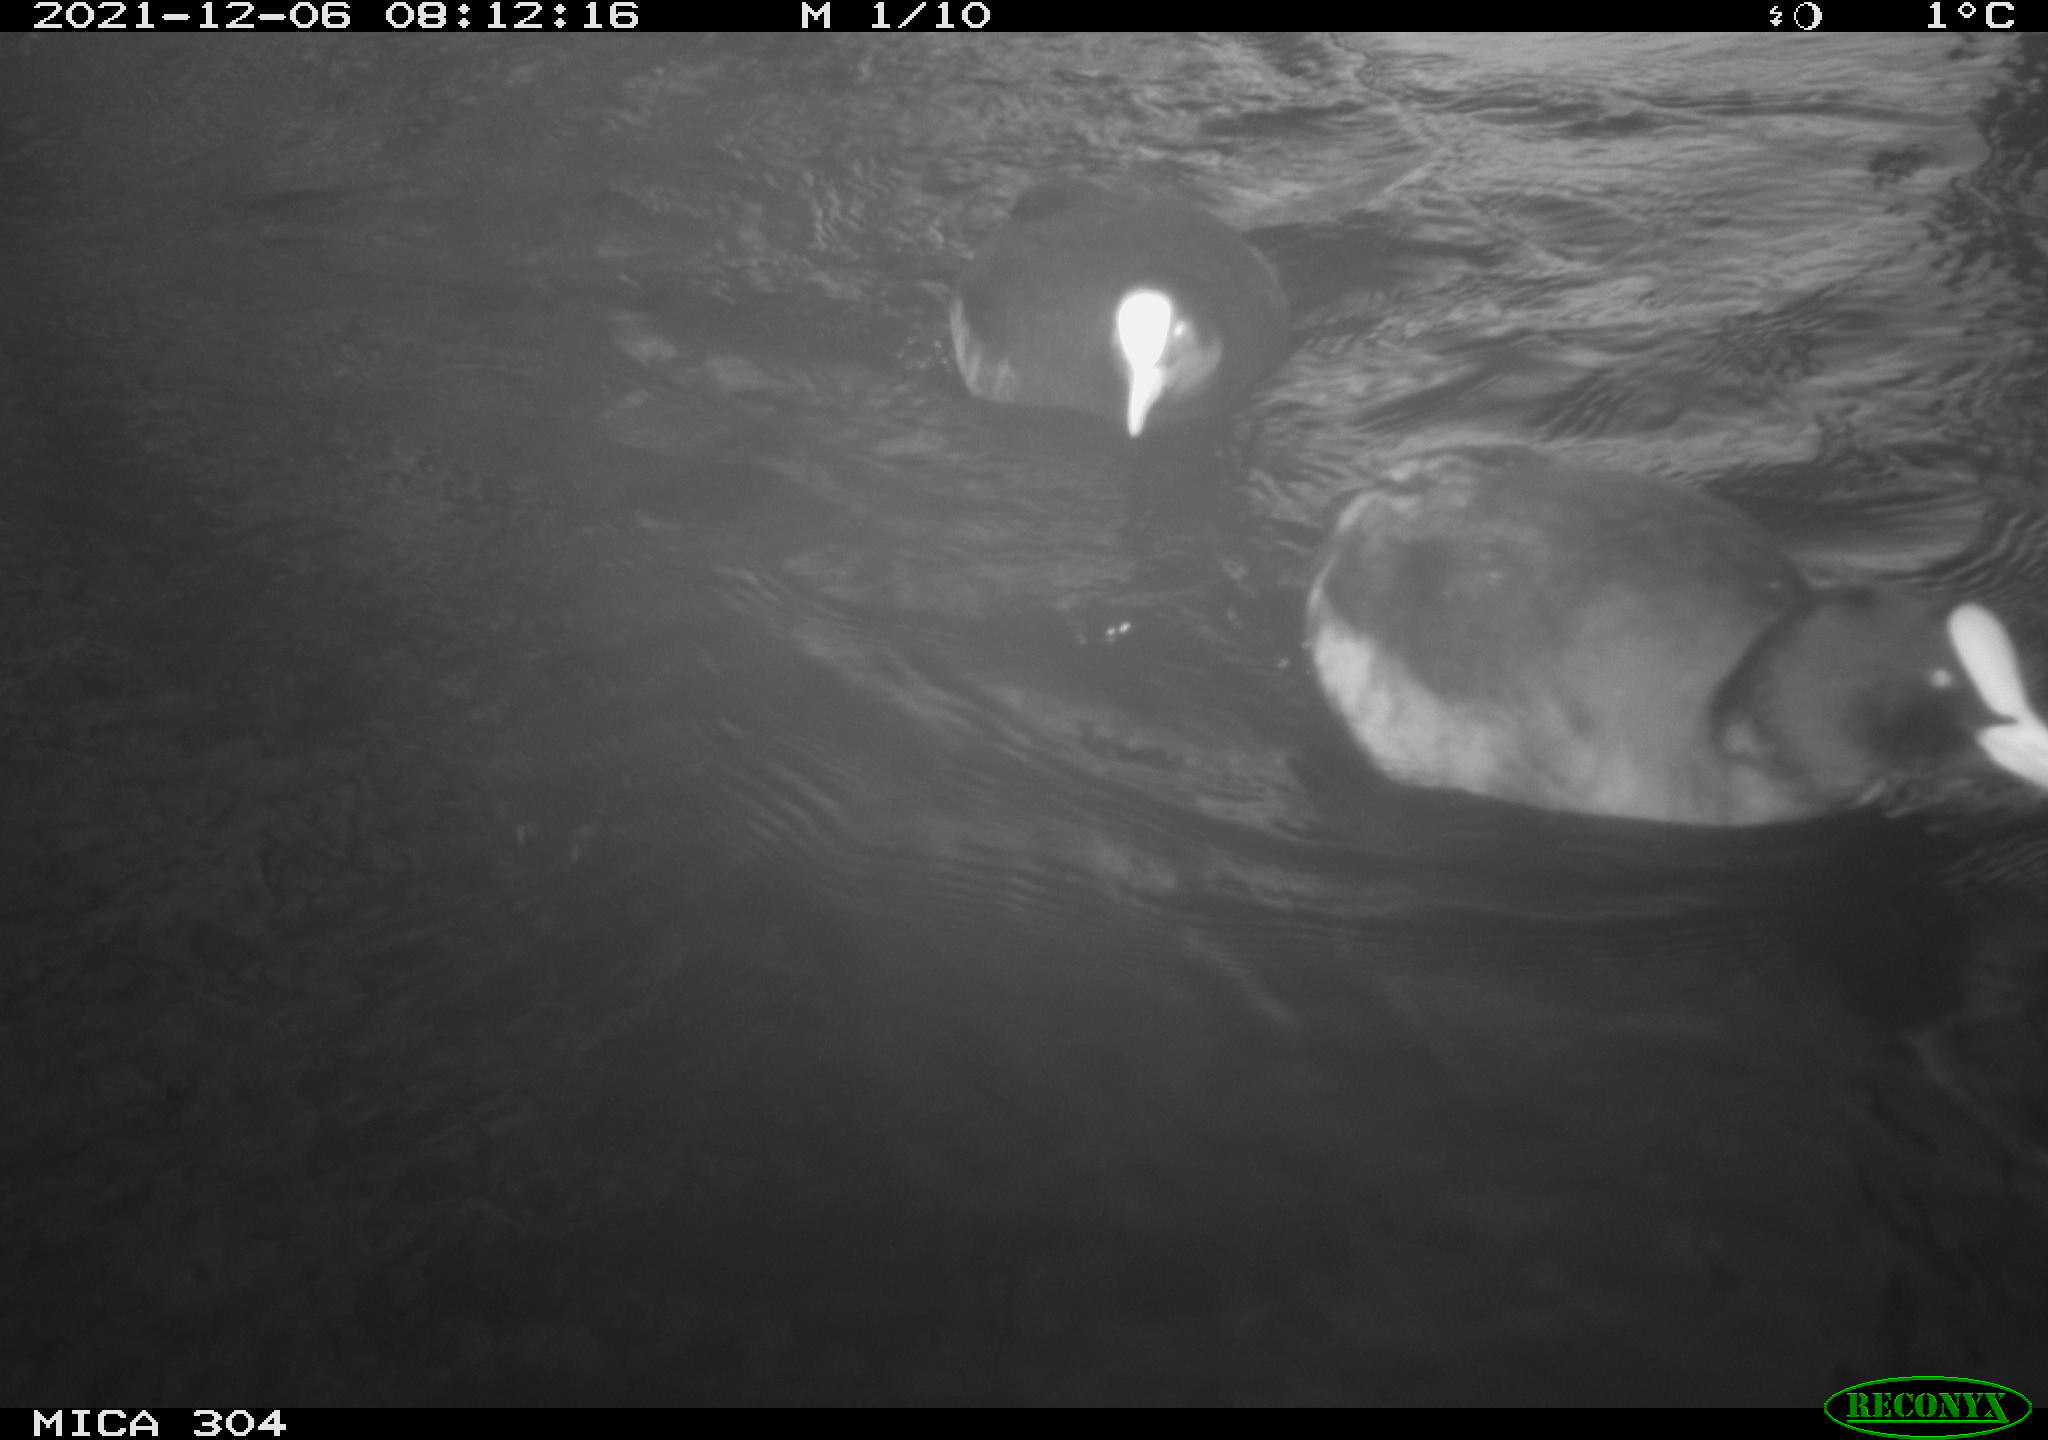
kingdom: Animalia
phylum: Chordata
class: Aves
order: Gruiformes
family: Rallidae
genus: Fulica
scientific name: Fulica atra
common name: Eurasian coot
